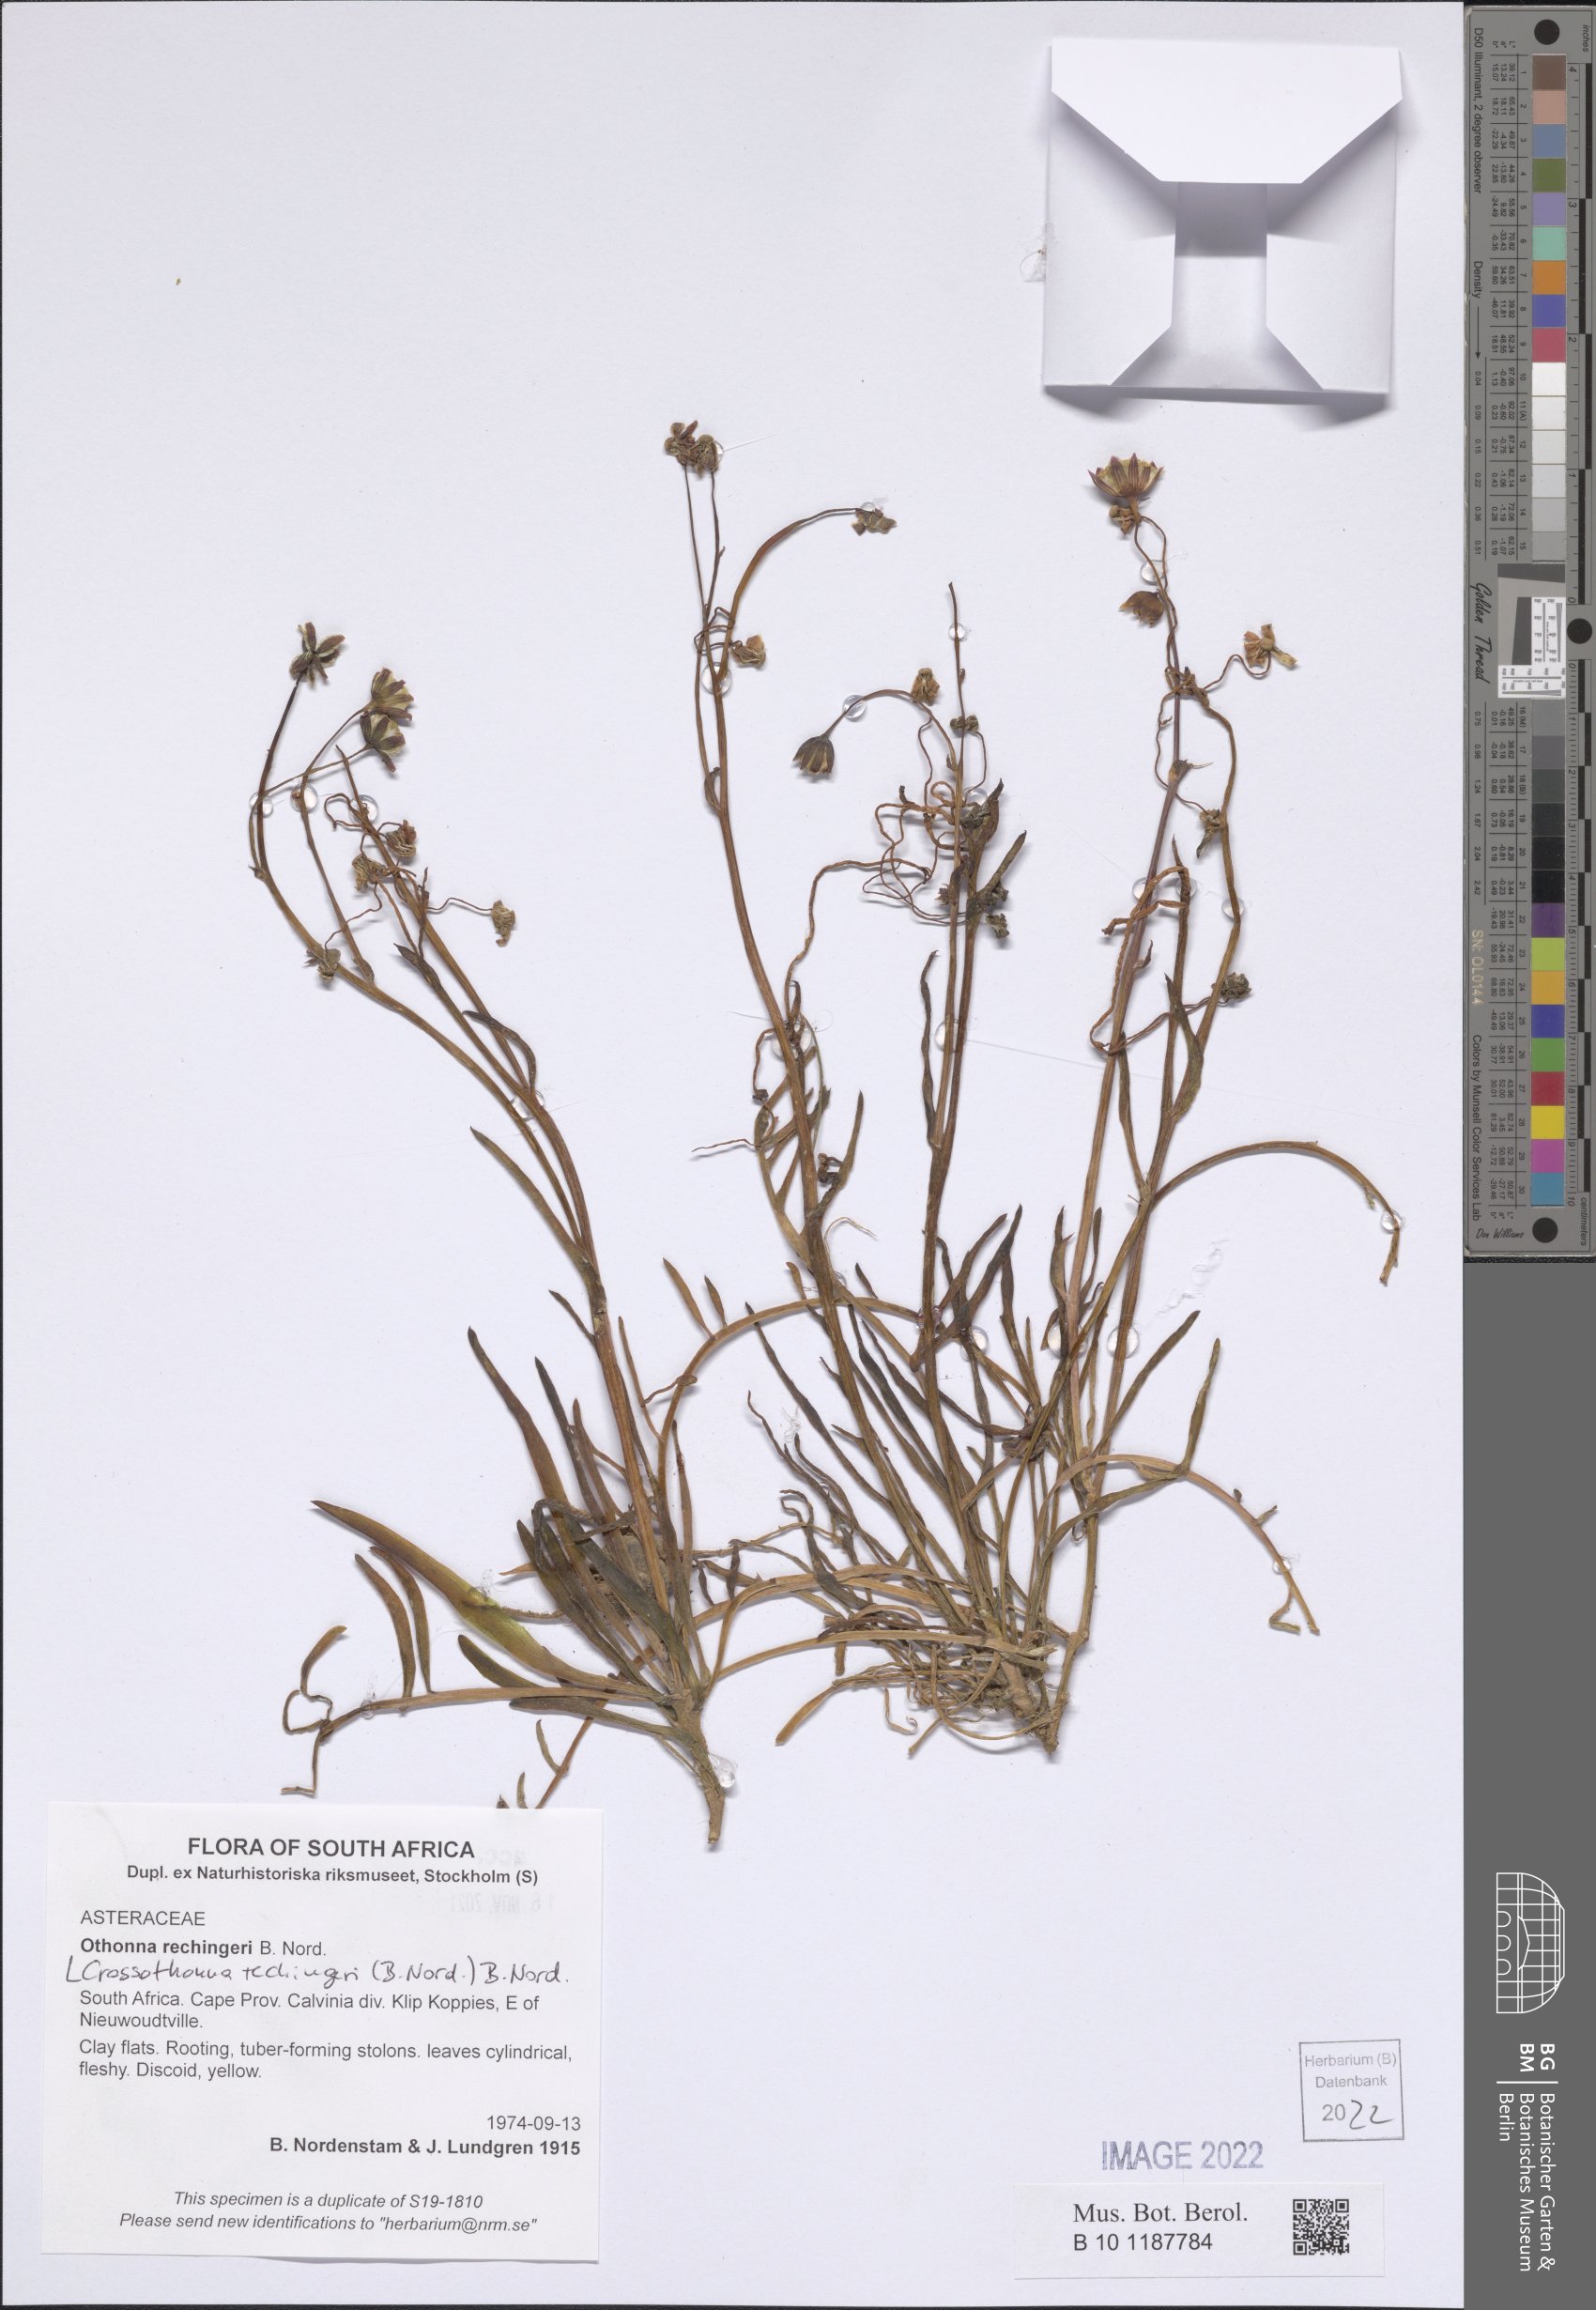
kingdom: Plantae
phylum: Tracheophyta
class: Magnoliopsida
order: Asterales
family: Asteraceae
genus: Crassothonna
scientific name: Crassothonna rechingeri
